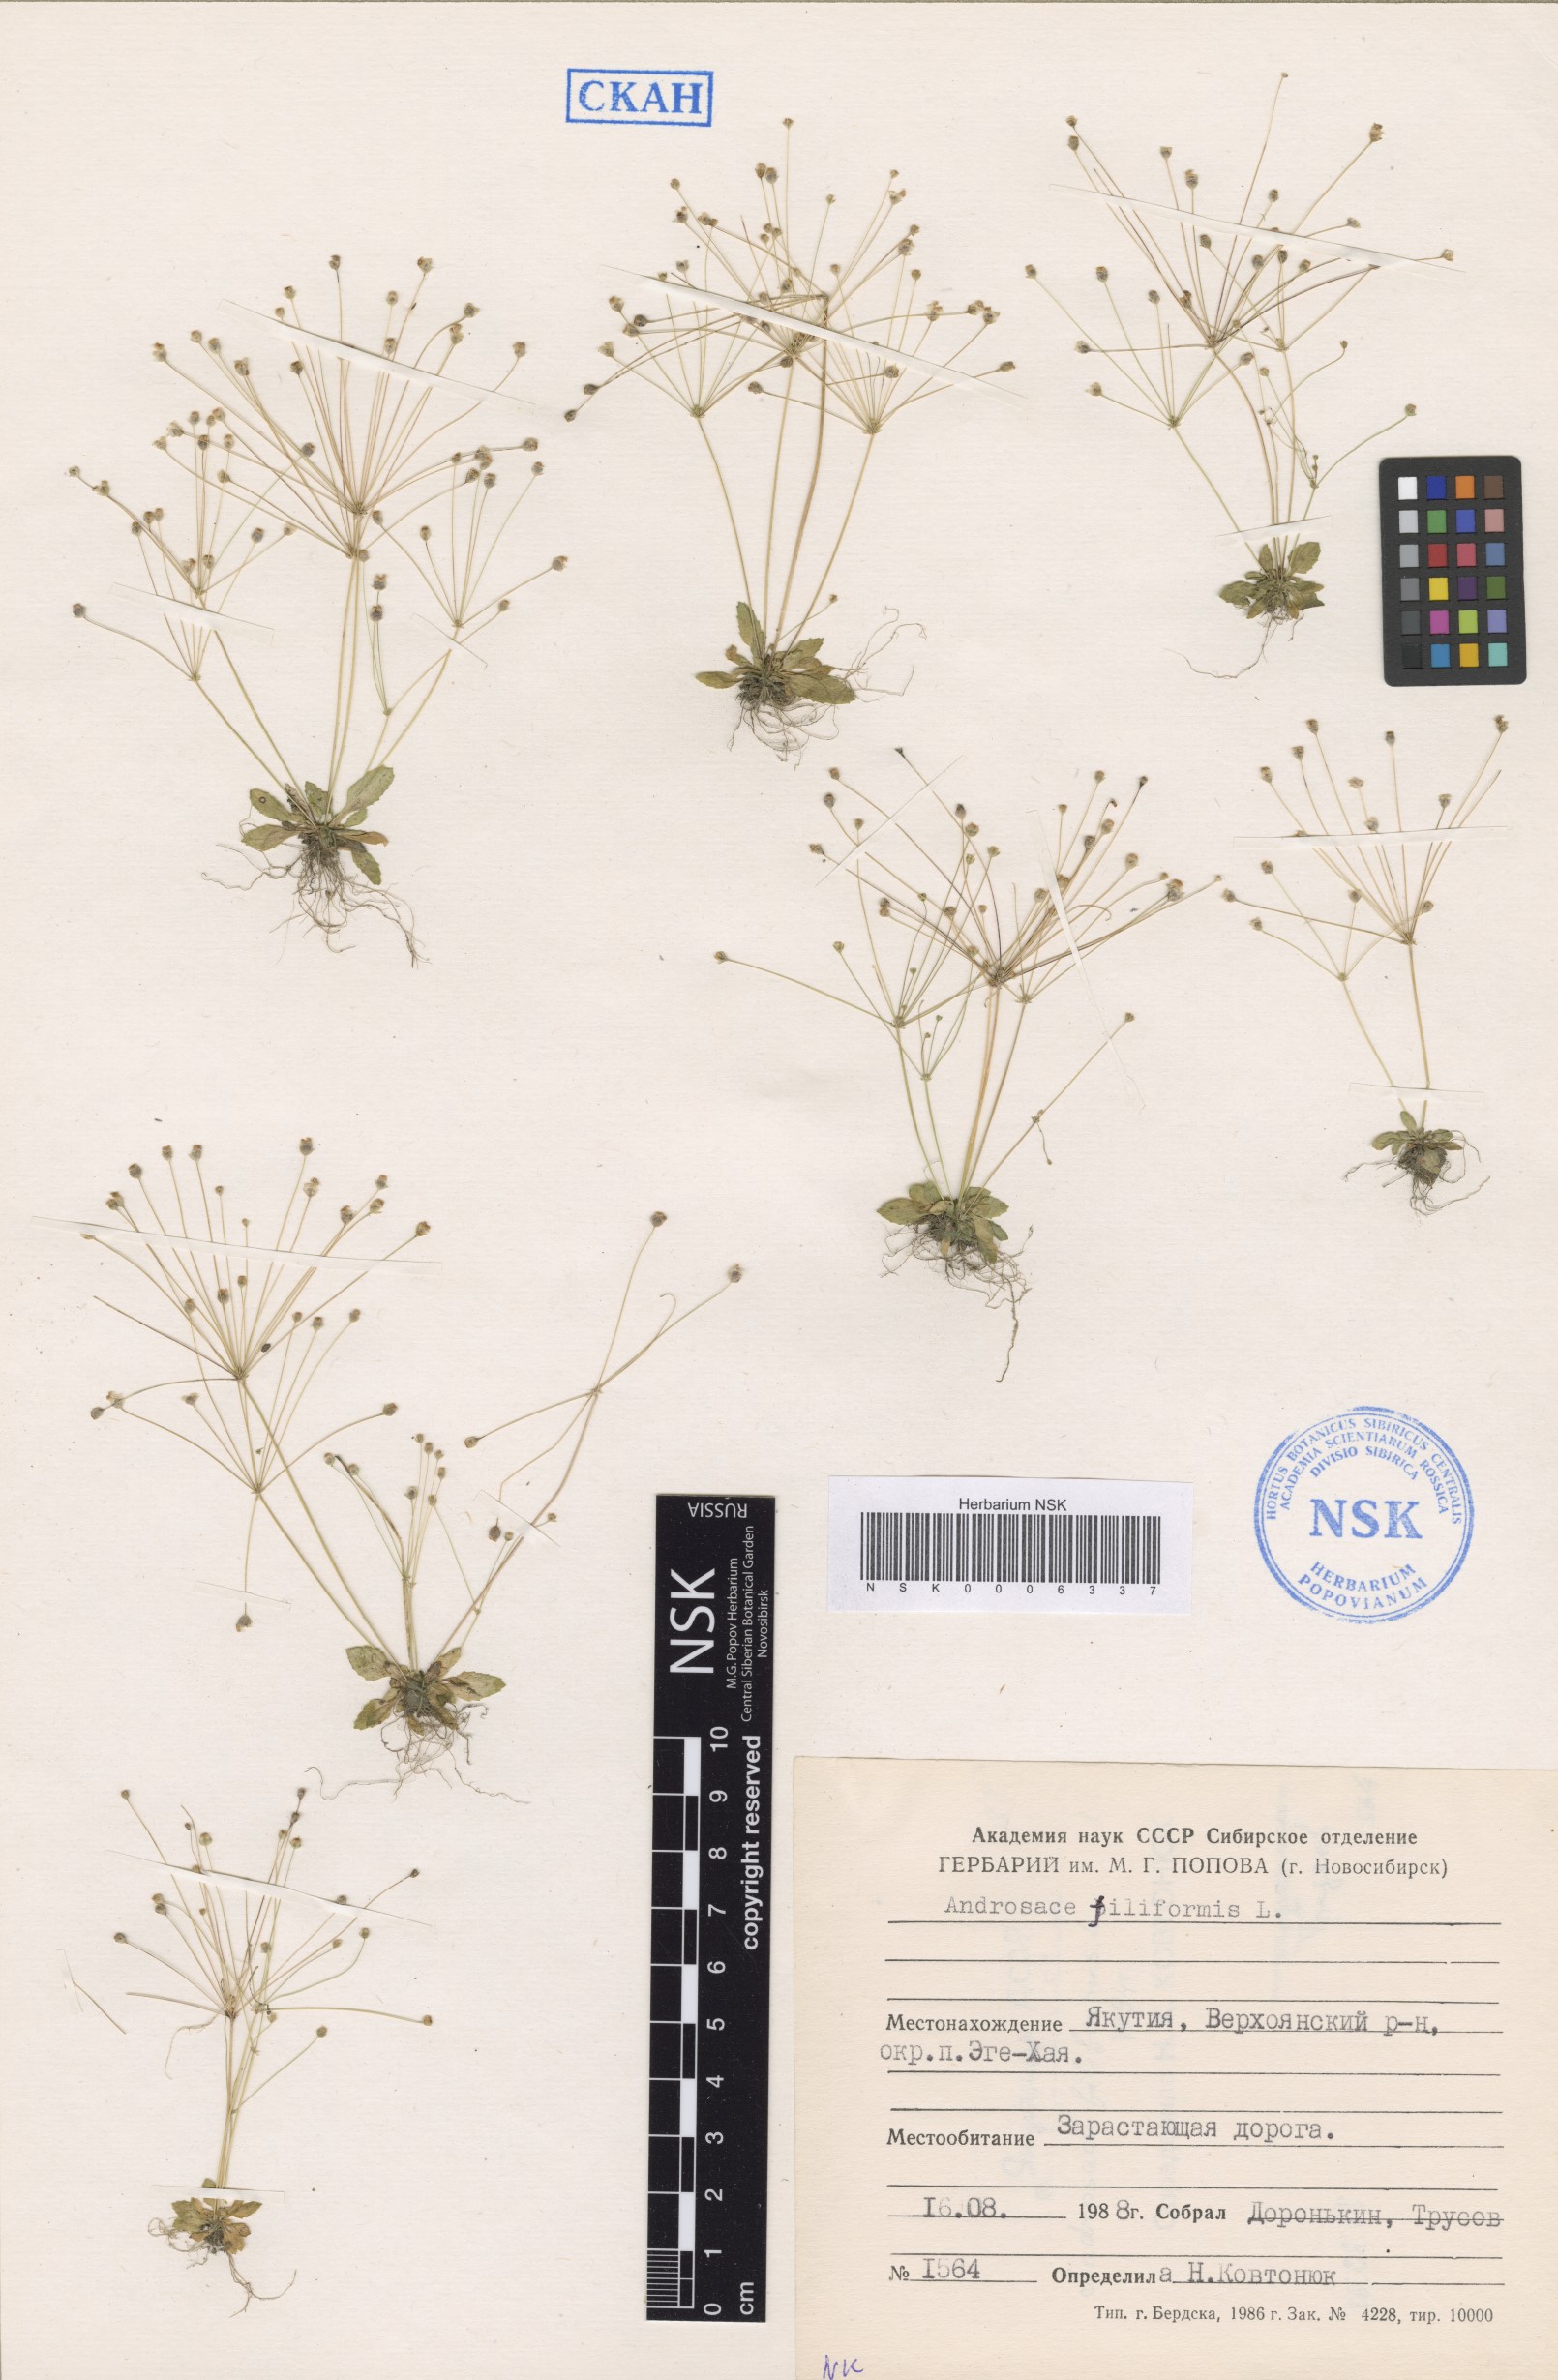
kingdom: Plantae
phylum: Tracheophyta
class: Magnoliopsida
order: Ericales
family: Primulaceae
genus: Androsace
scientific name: Androsace filiformis
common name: Filiform rock jasmine
